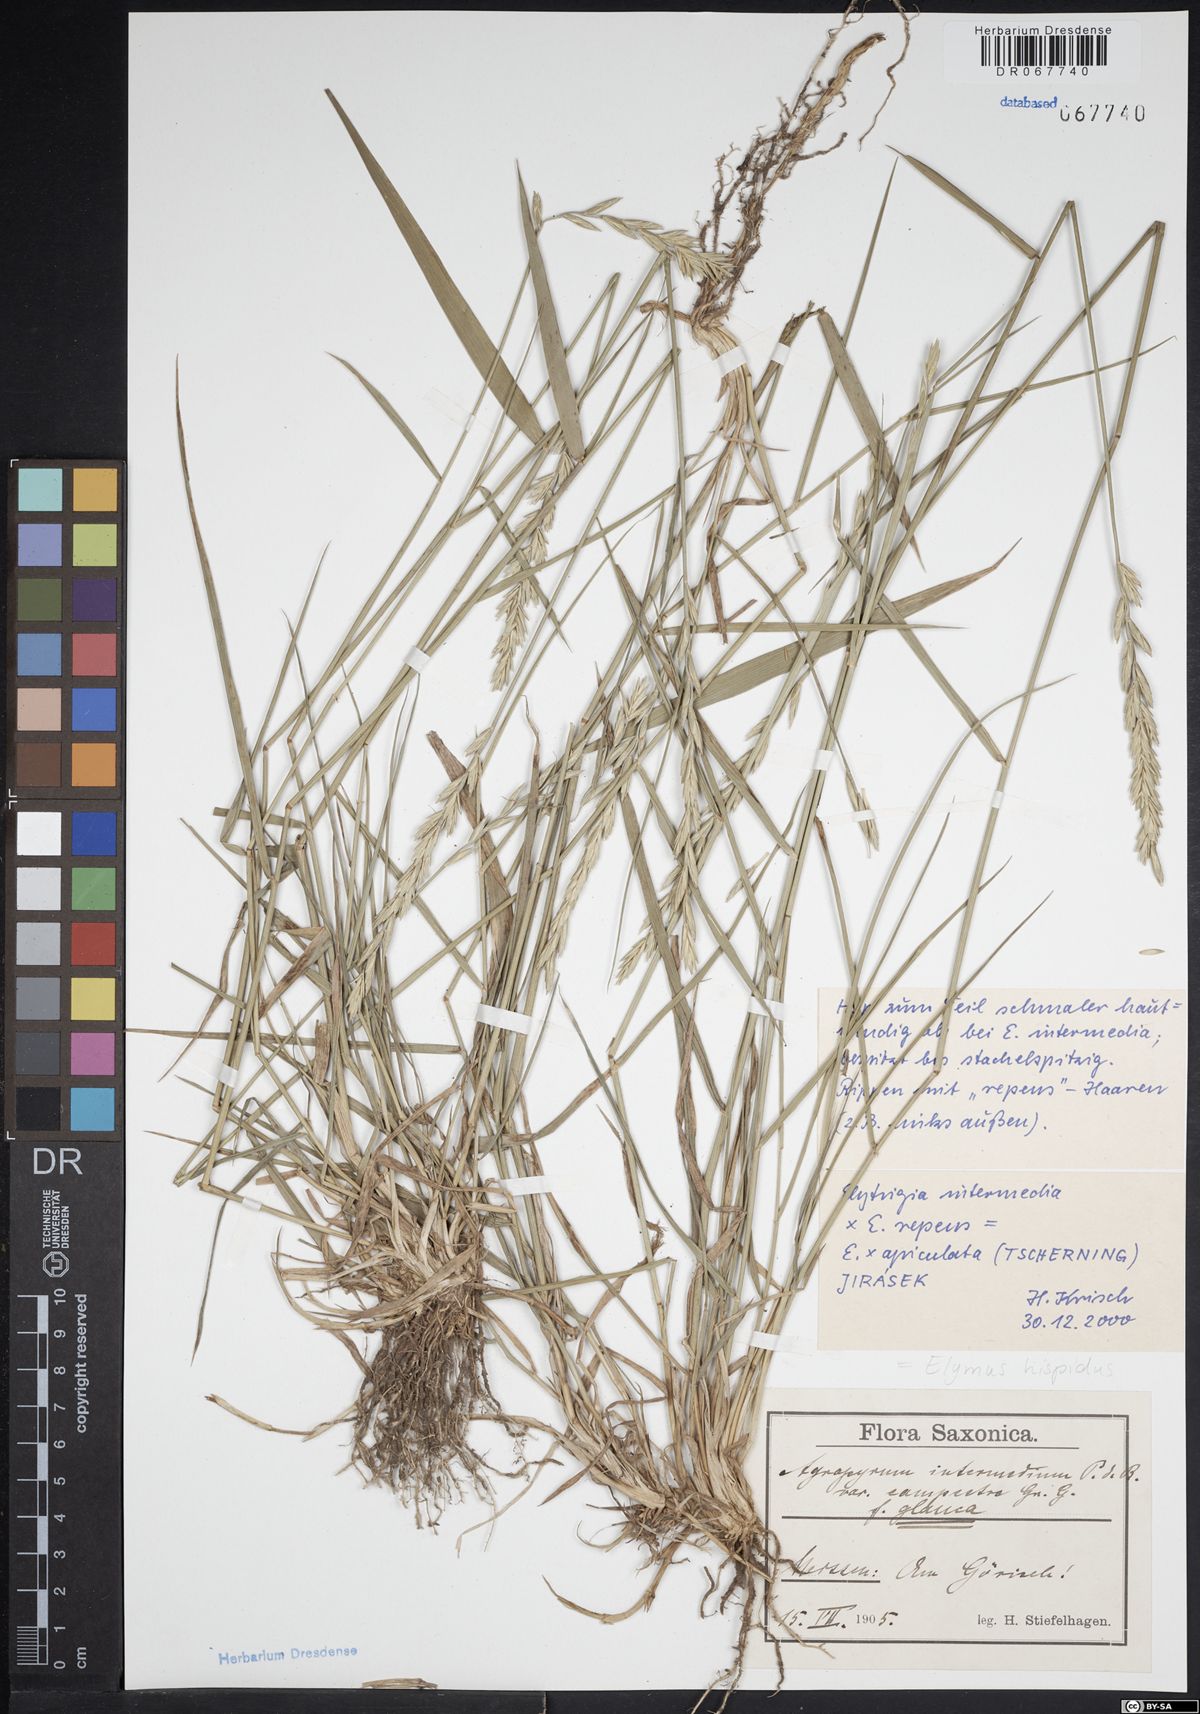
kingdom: Plantae
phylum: Tracheophyta
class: Liliopsida
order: Poales
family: Poaceae
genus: Thinopyrum
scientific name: Thinopyrum intermedium
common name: Intermediate wheatgrass
